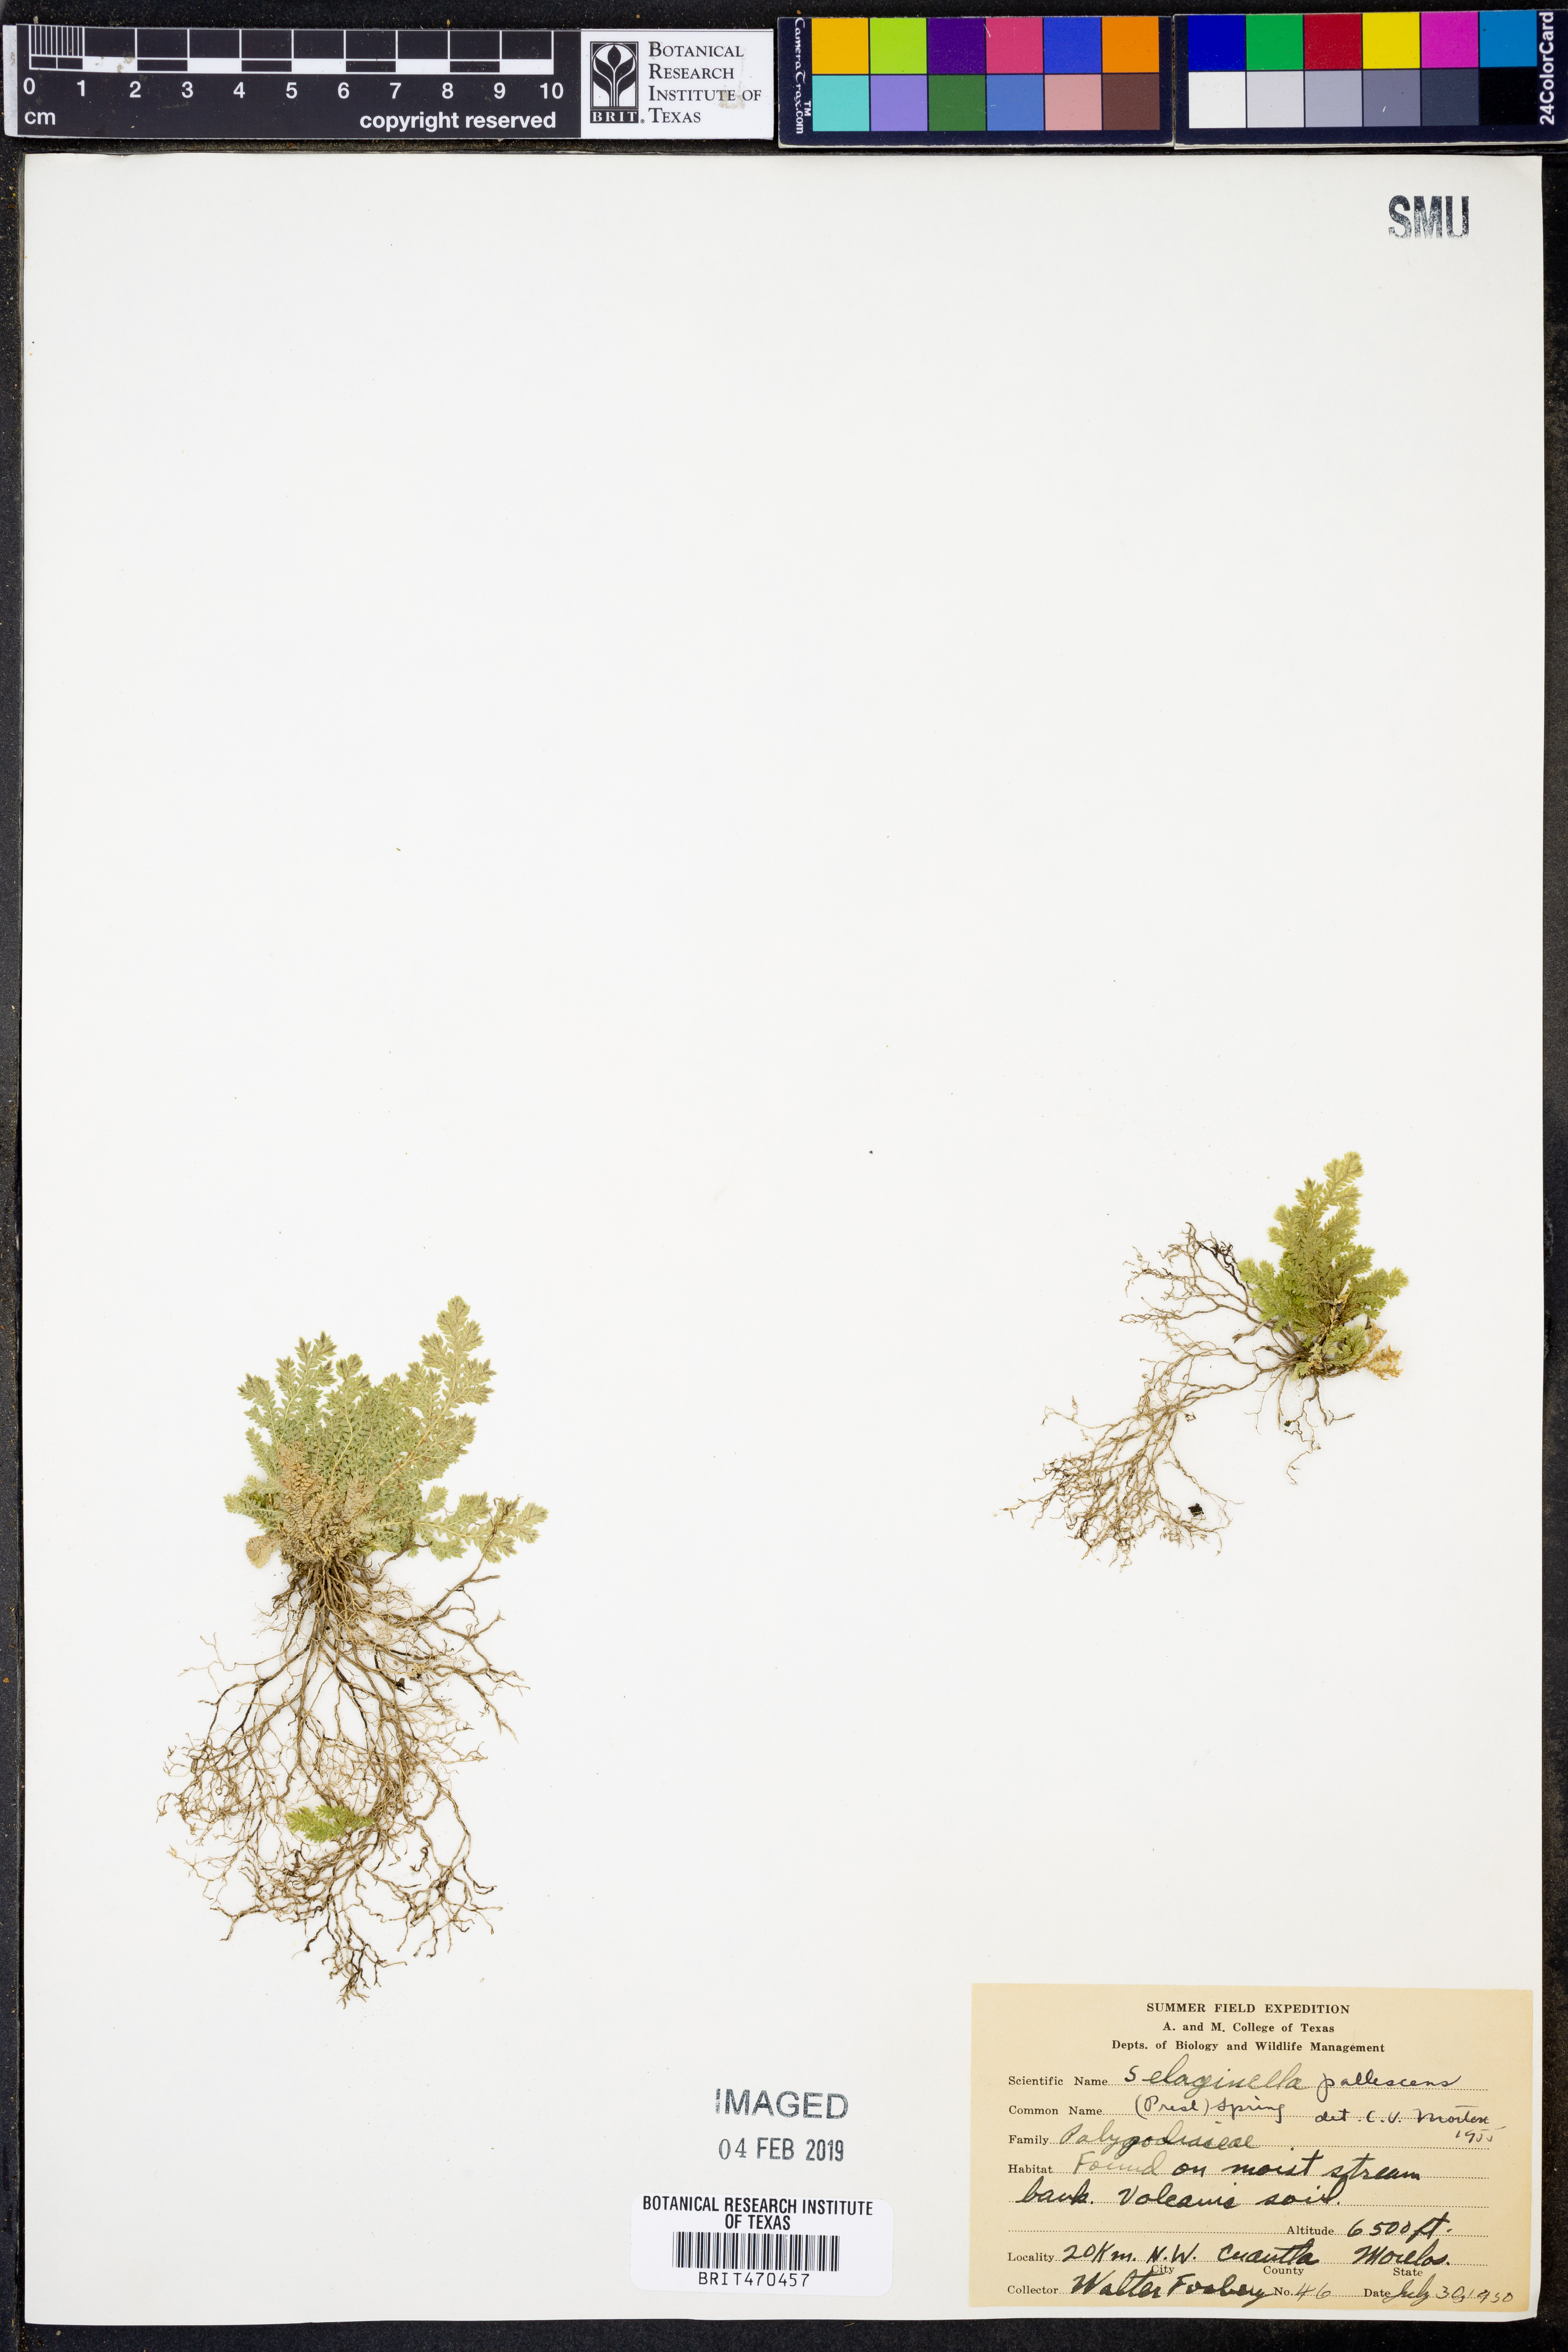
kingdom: Plantae
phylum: Tracheophyta
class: Lycopodiopsida
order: Selaginellales
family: Selaginellaceae
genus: Selaginella
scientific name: Selaginella pallescens
